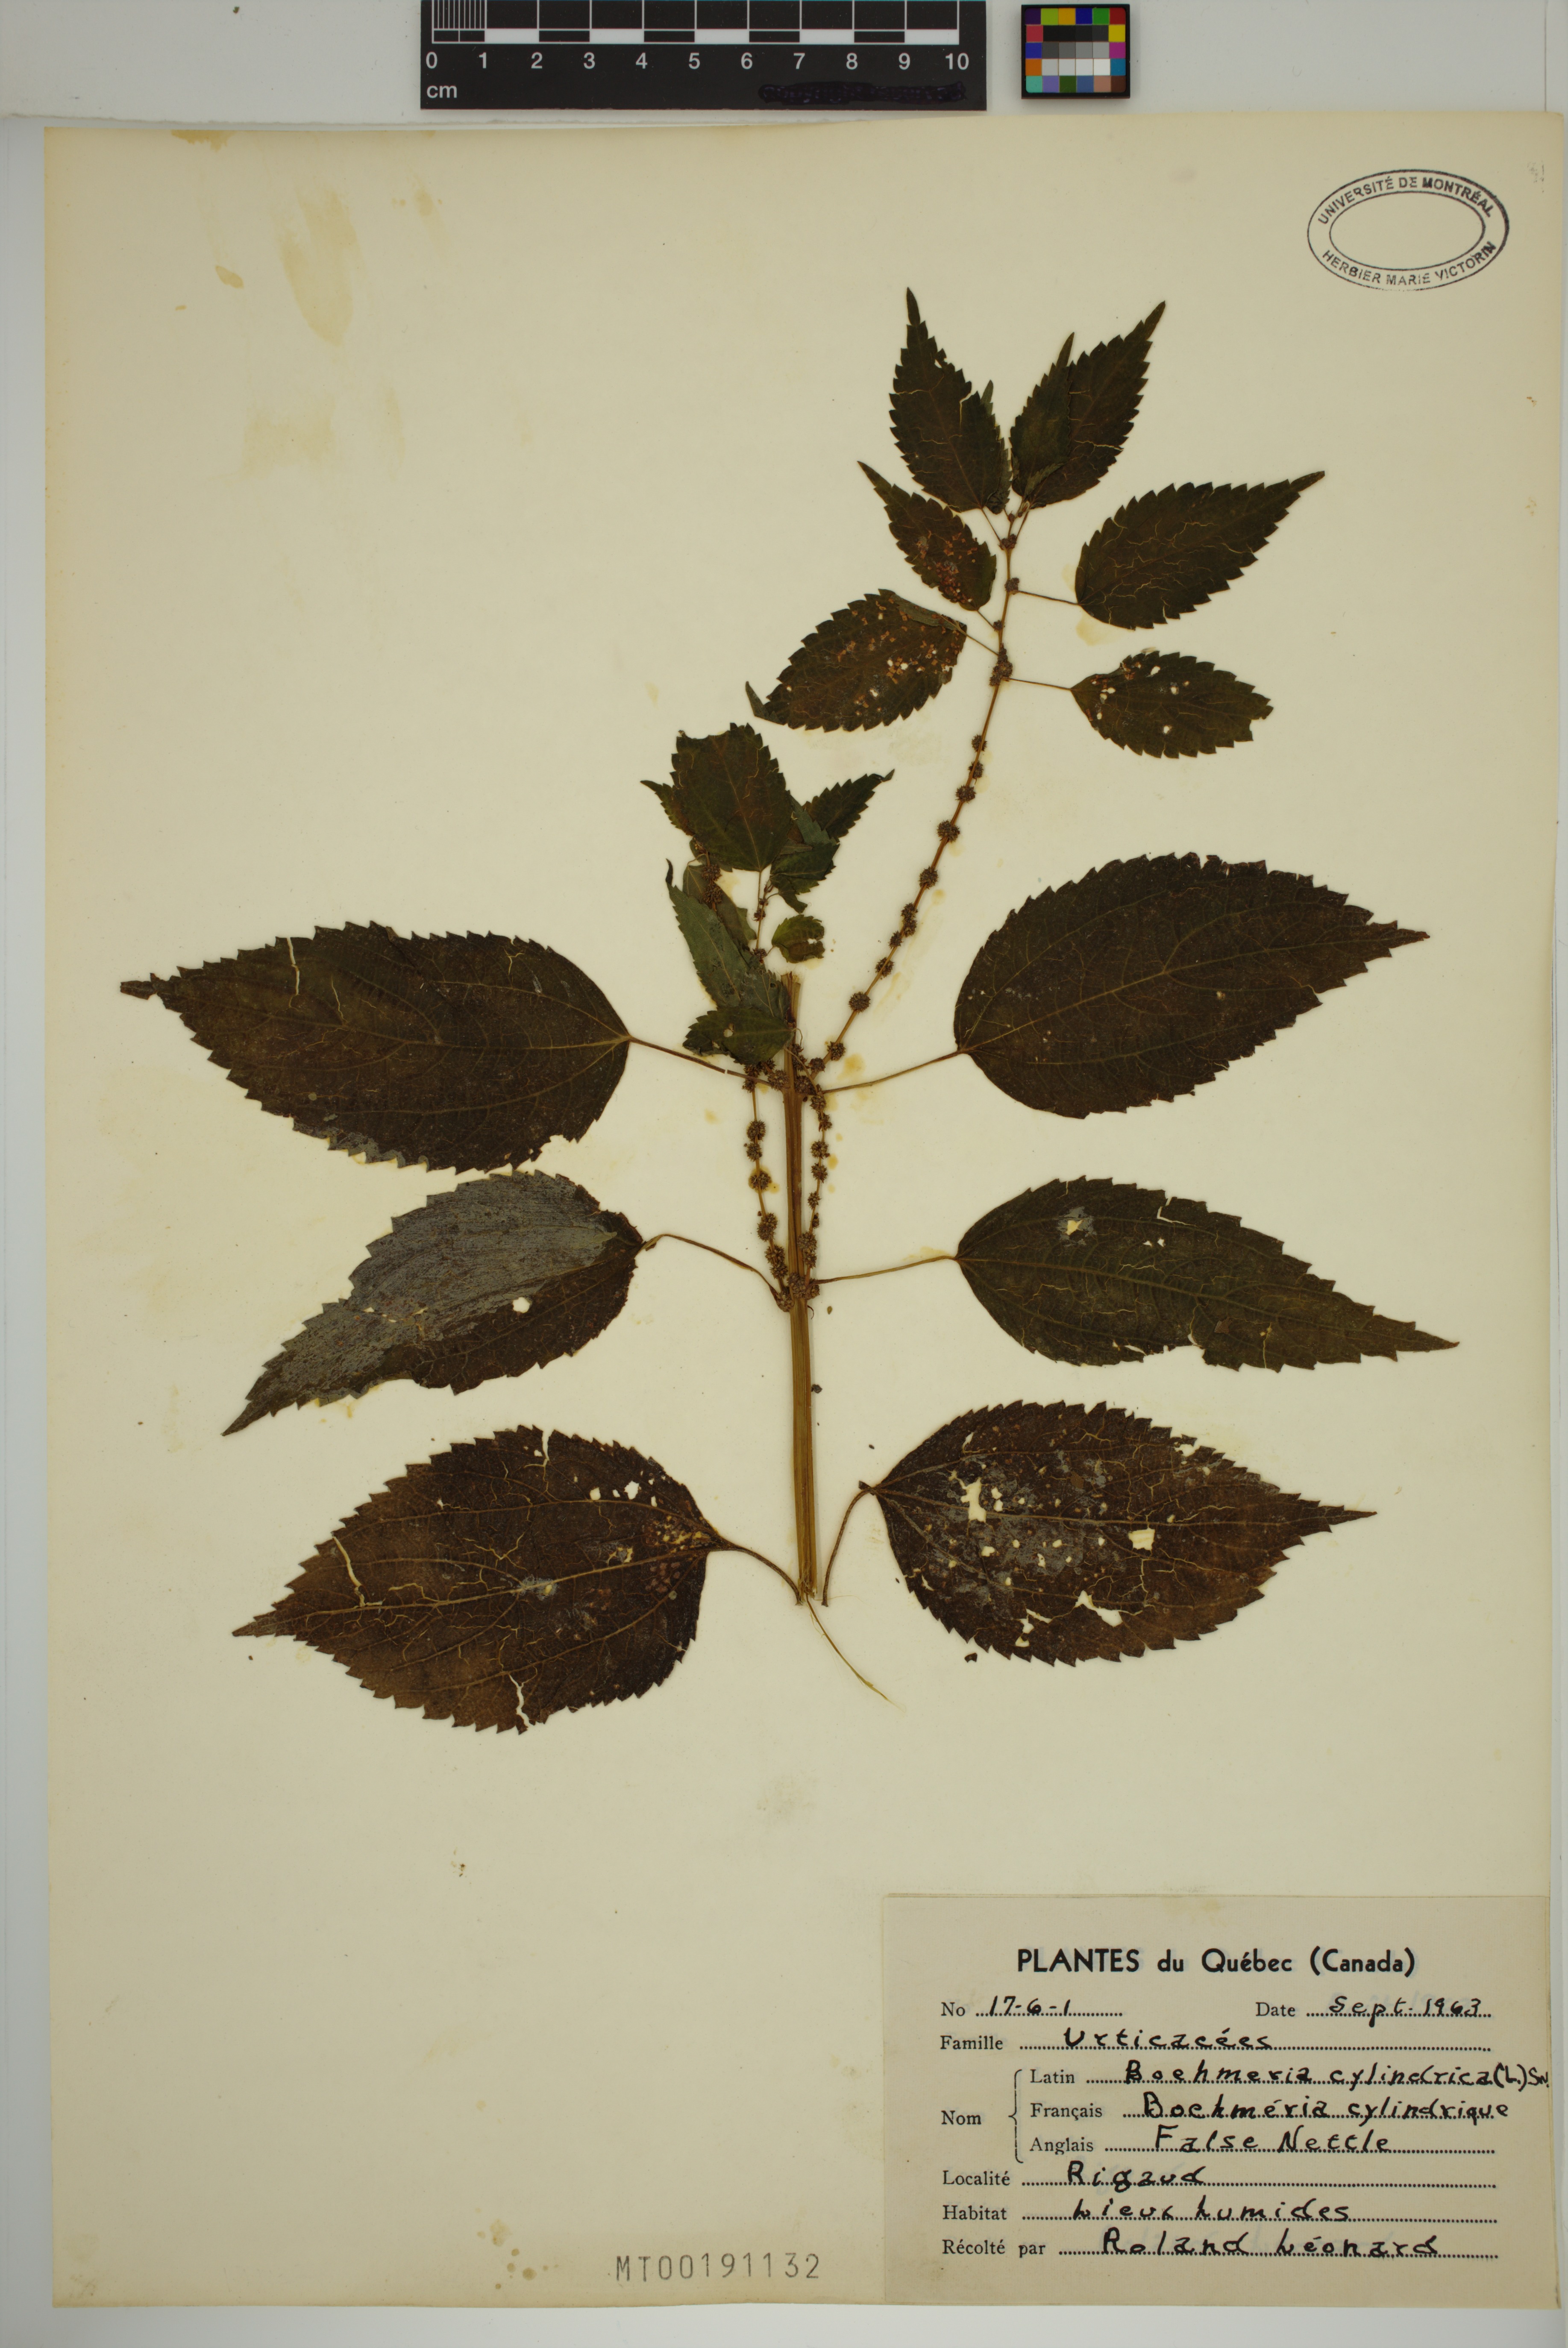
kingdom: Plantae
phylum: Tracheophyta
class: Magnoliopsida
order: Rosales
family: Urticaceae
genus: Boehmeria
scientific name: Boehmeria cylindrica
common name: Bog-hemp
